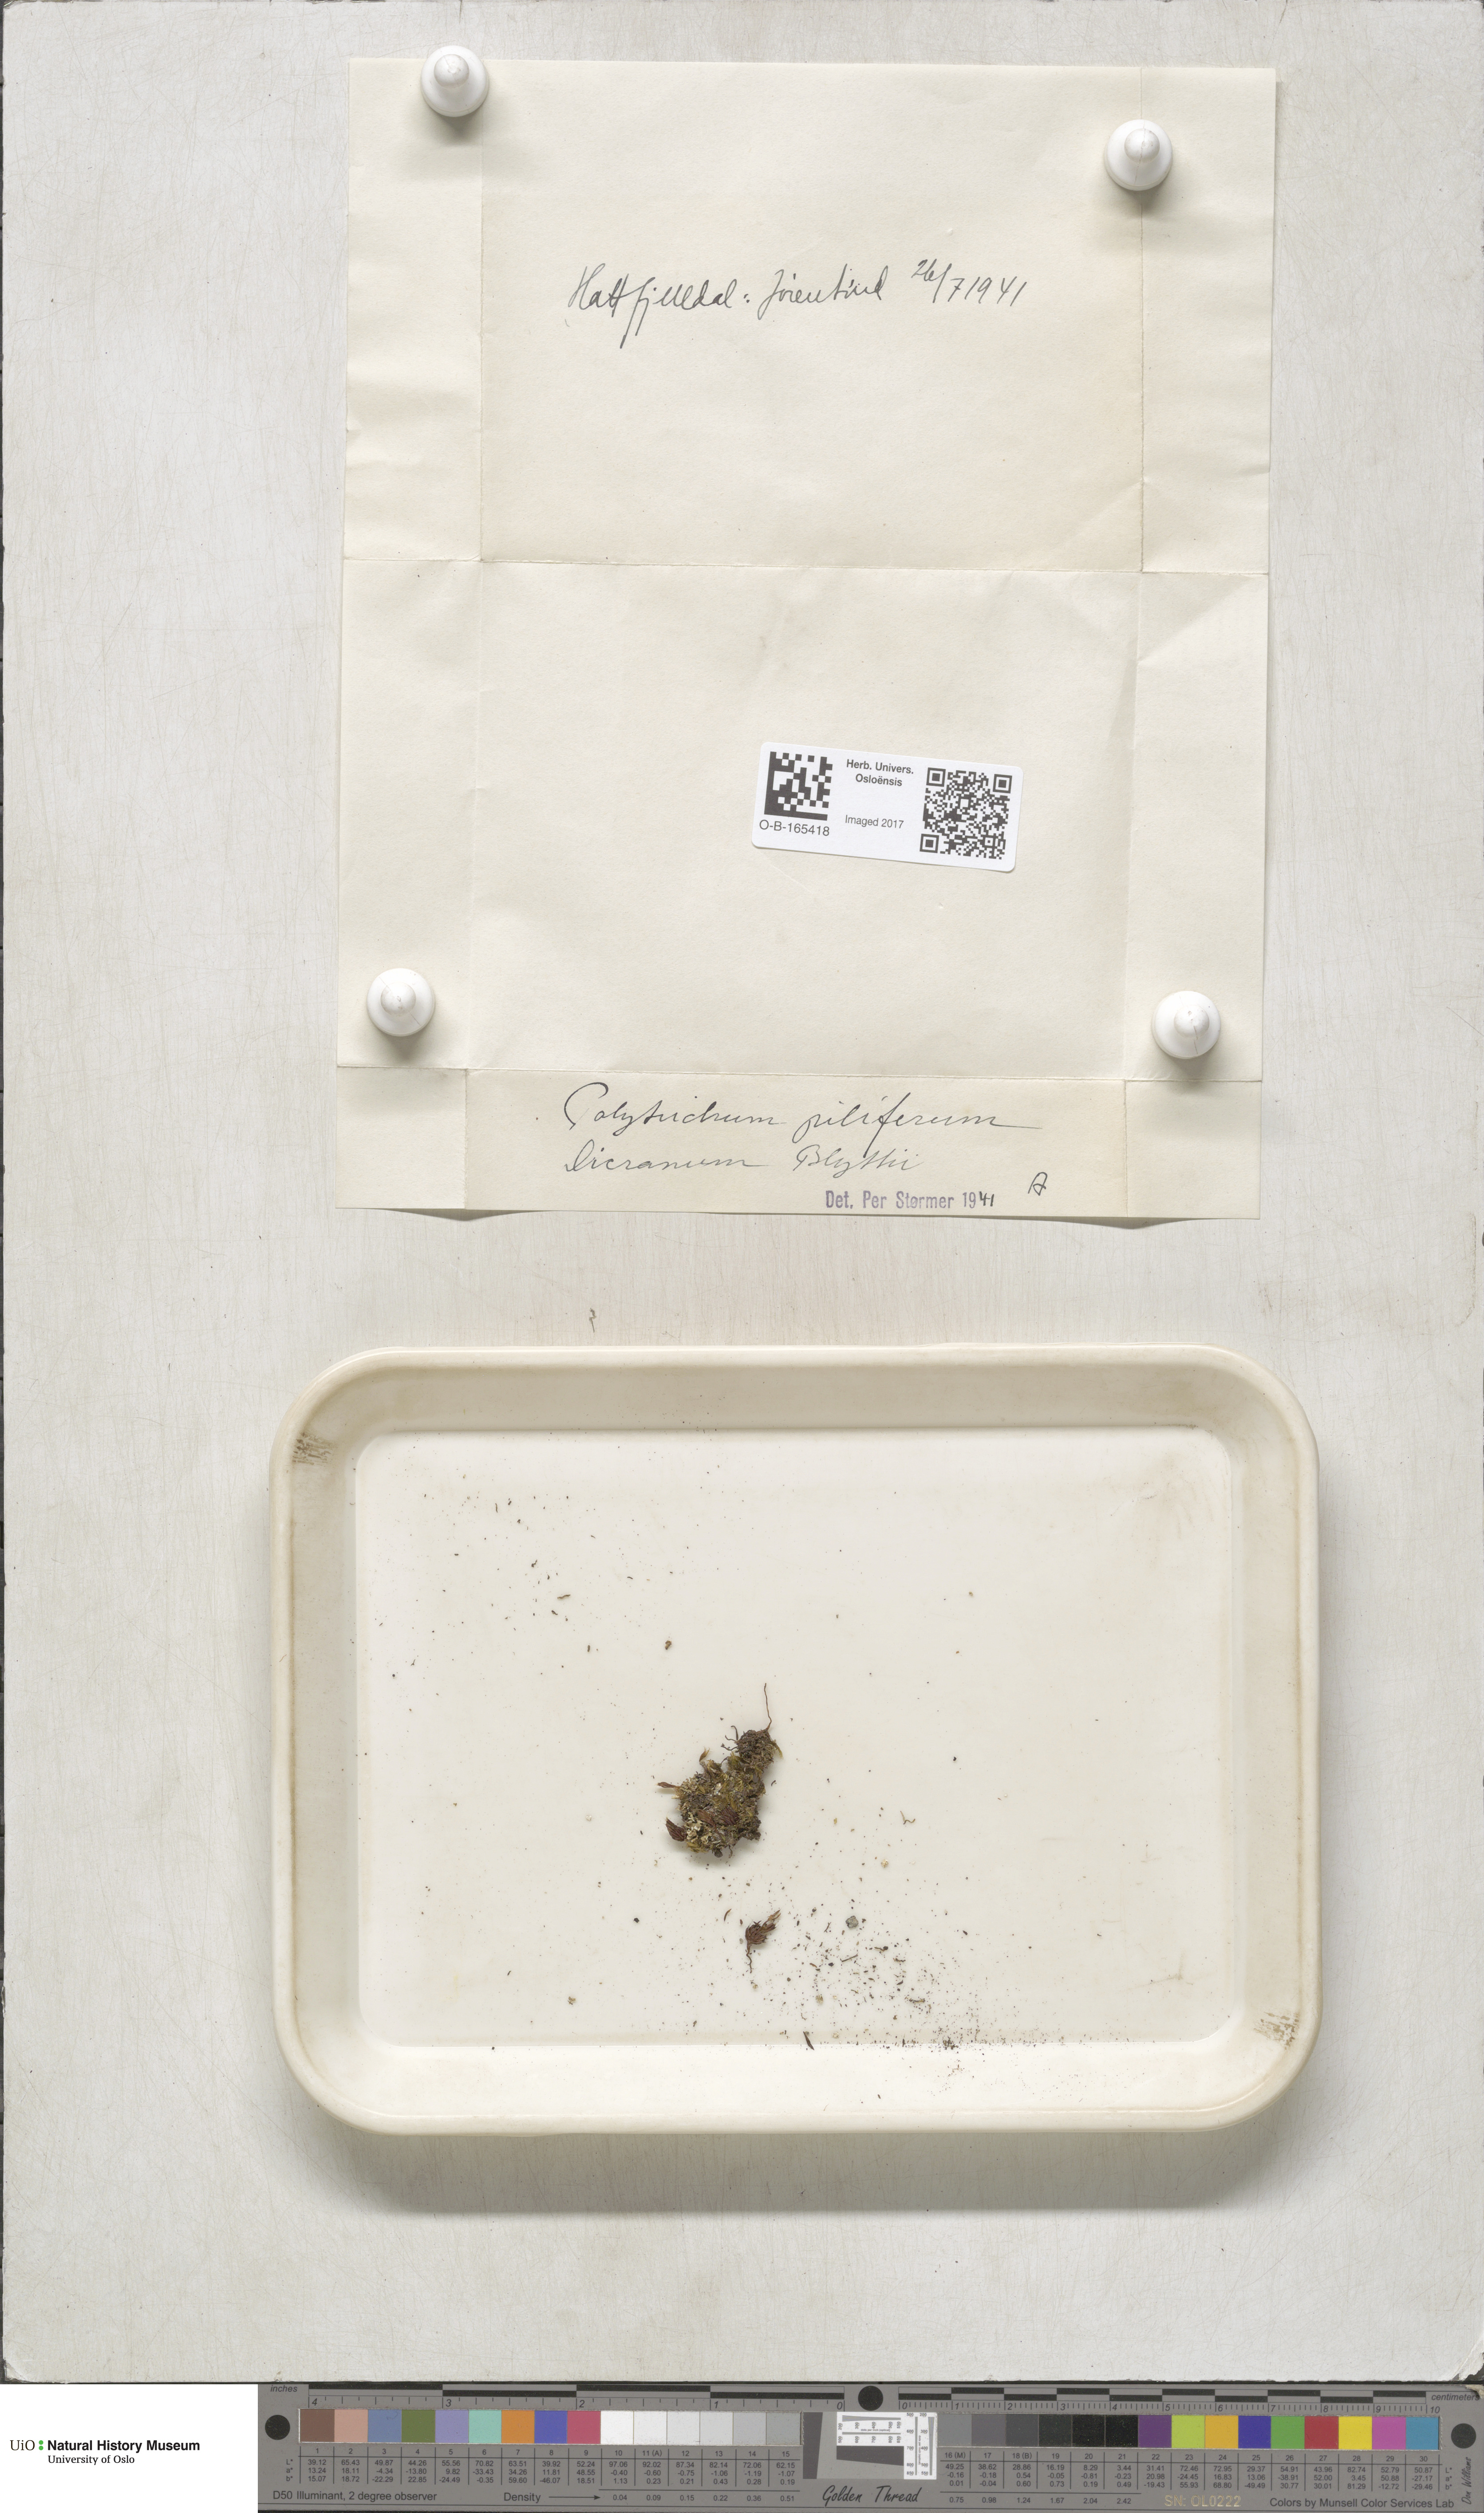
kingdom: Plantae
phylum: Bryophyta
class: Polytrichopsida
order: Polytrichales
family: Polytrichaceae
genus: Polytrichum
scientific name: Polytrichum piliferum
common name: Bristly haircap
